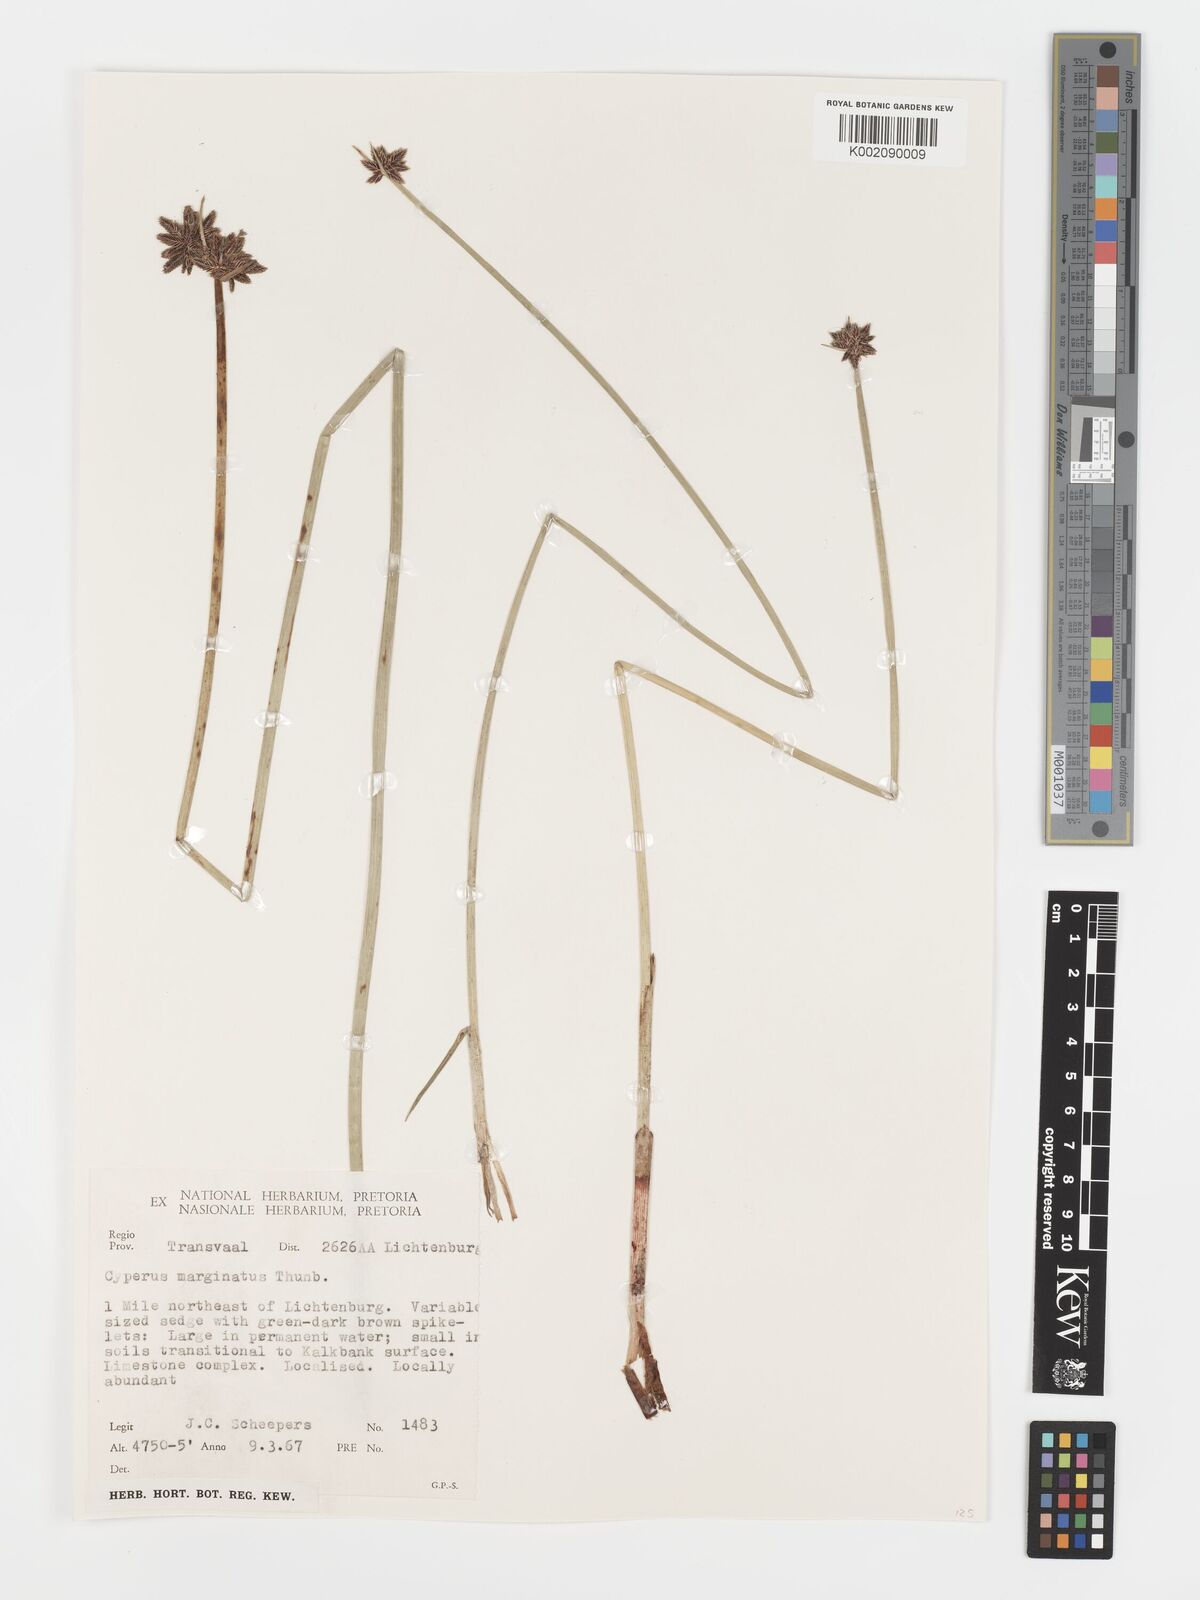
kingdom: Plantae
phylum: Tracheophyta
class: Liliopsida
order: Poales
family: Cyperaceae
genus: Cyperus
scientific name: Cyperus marginatus
